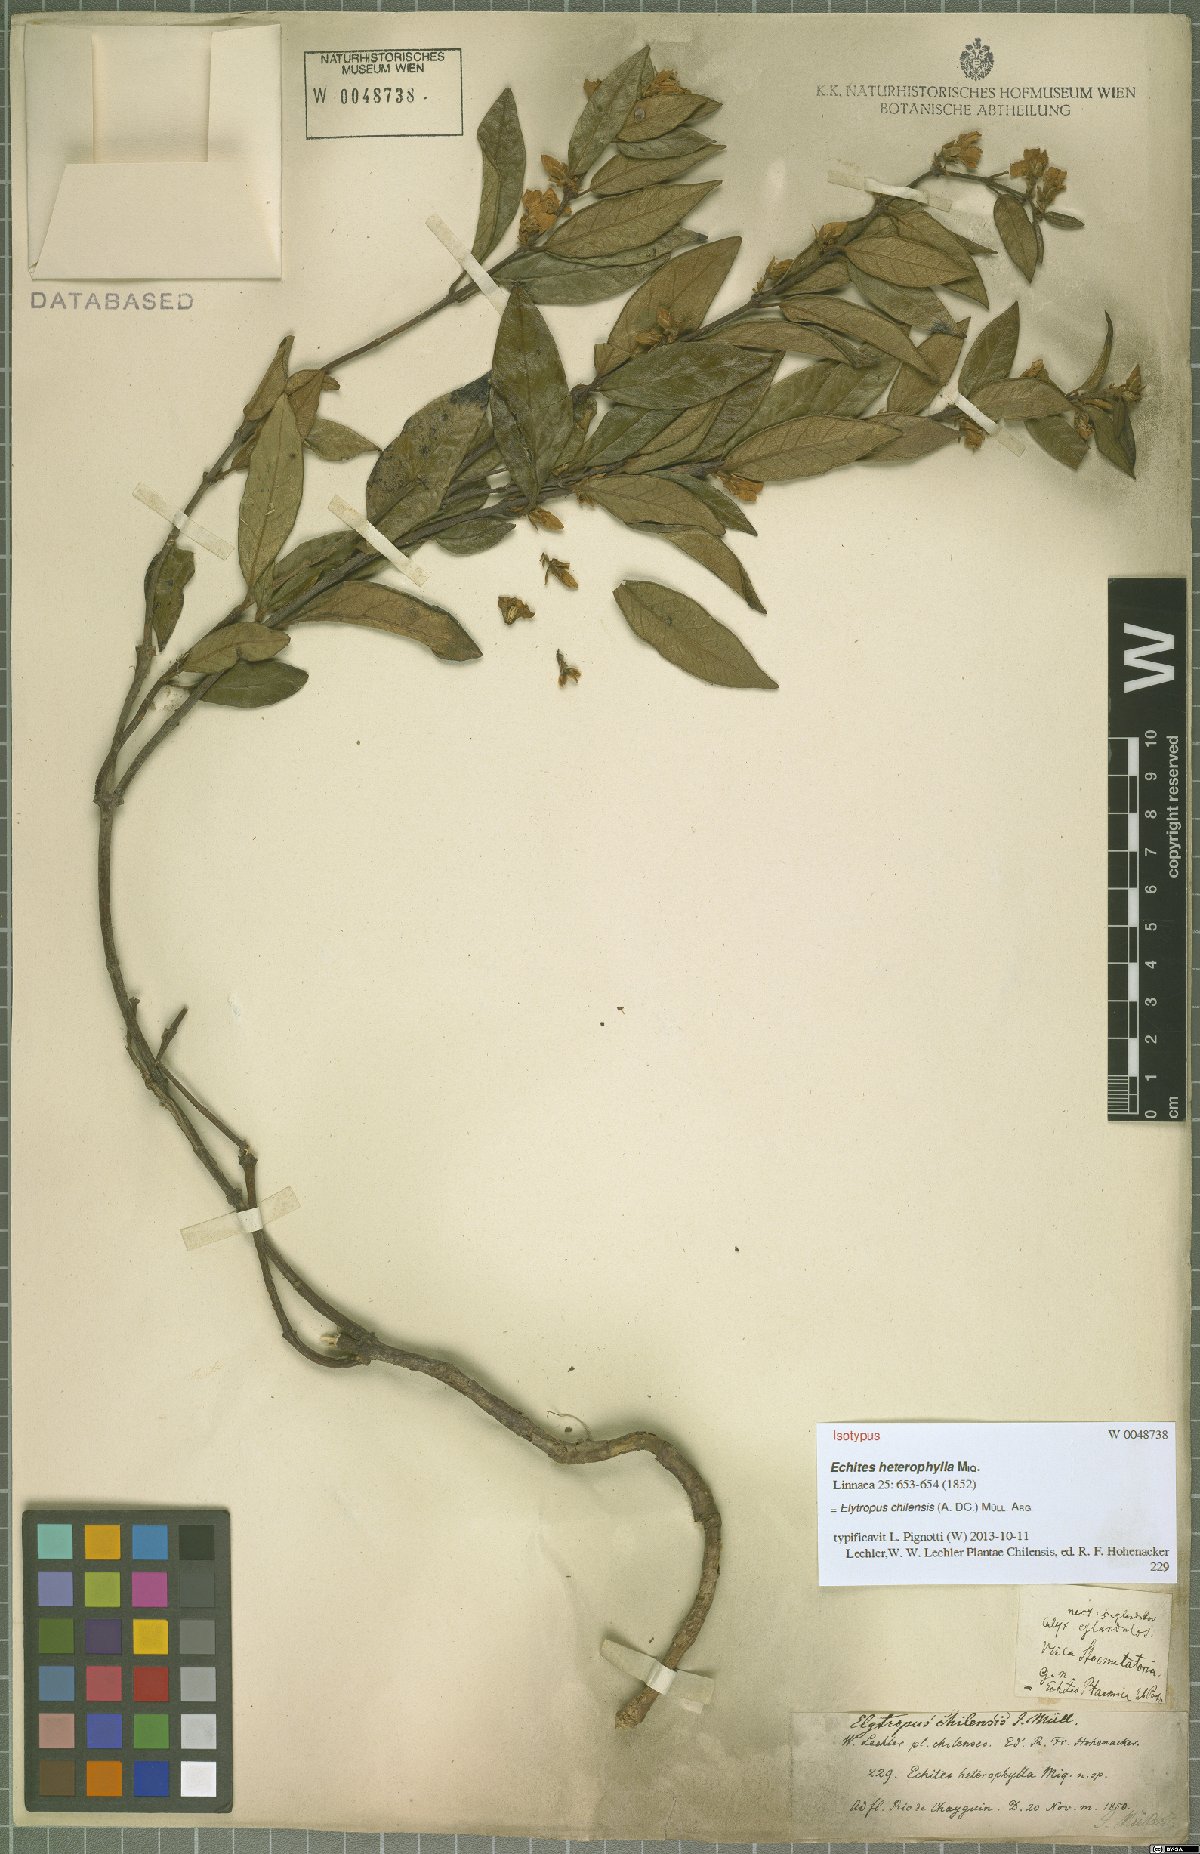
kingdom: Plantae
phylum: Tracheophyta
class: Magnoliopsida
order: Gentianales
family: Apocynaceae
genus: Mandevilla
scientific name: Mandevilla pubescens
